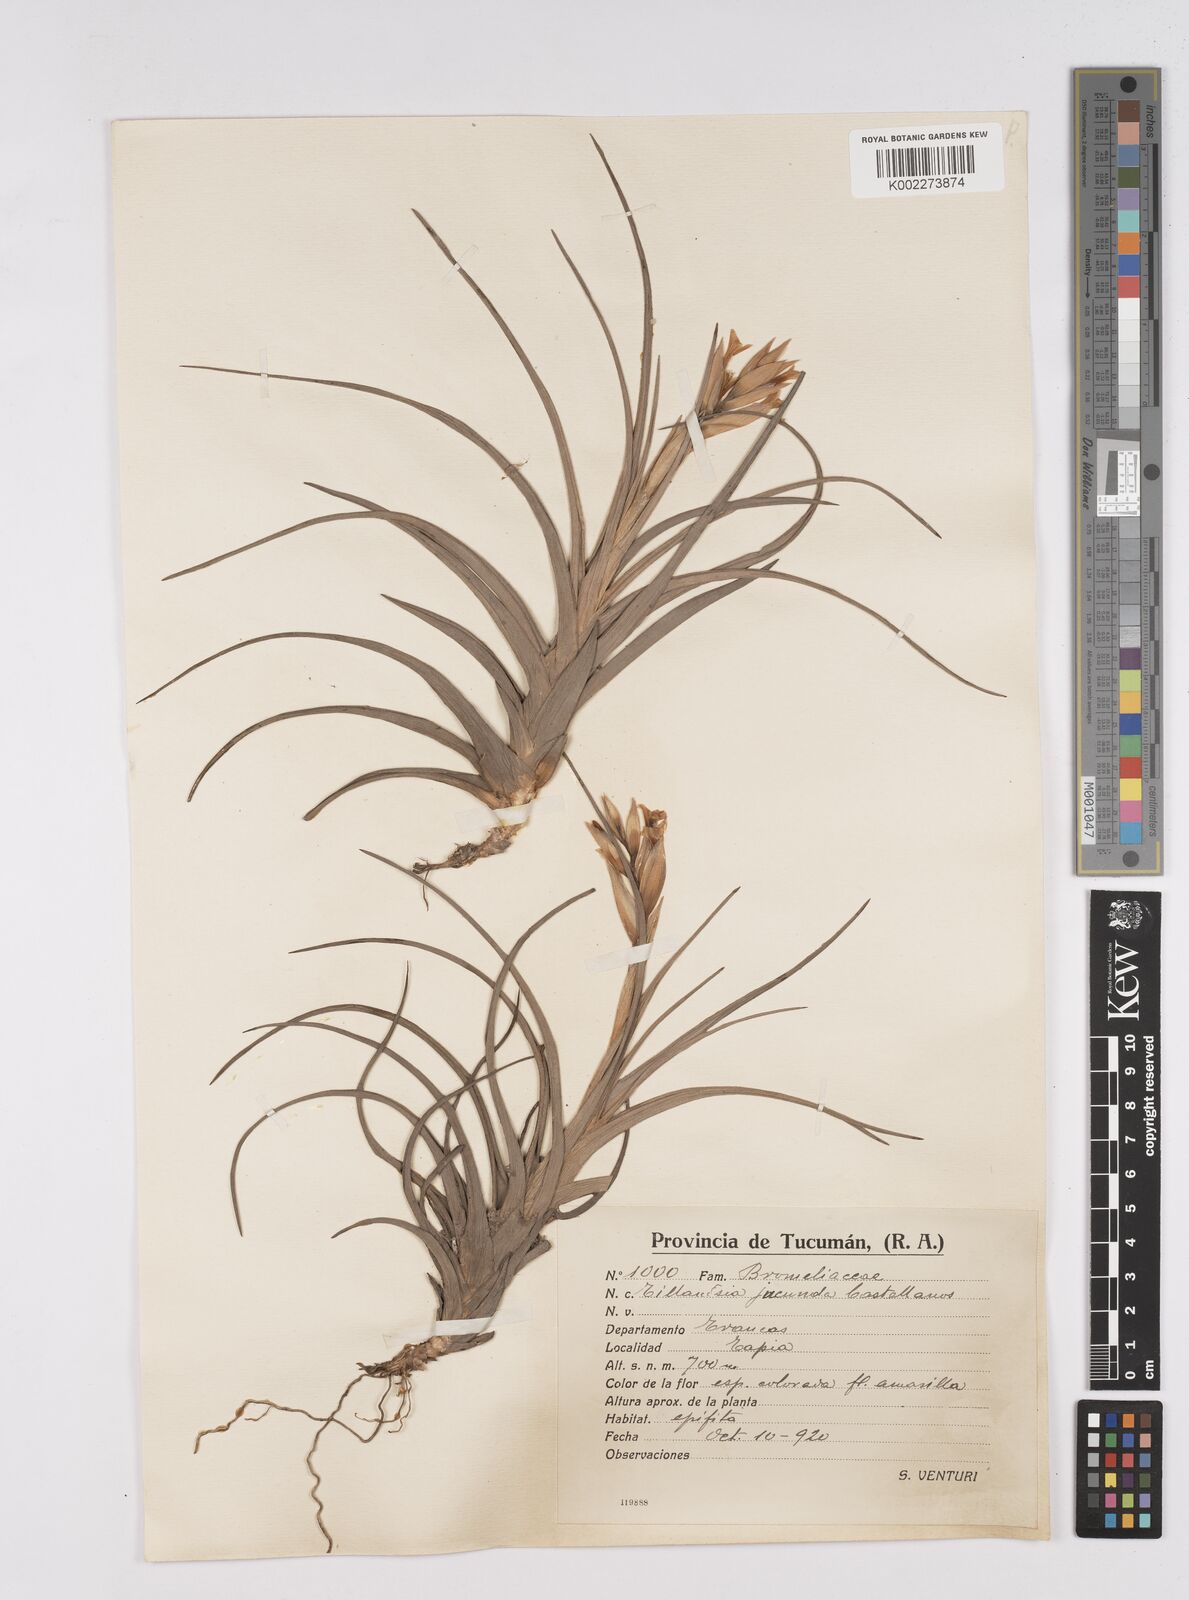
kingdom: Plantae
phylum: Tracheophyta
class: Liliopsida
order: Poales
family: Bromeliaceae
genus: Tillandsia
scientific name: Tillandsia jucunda
